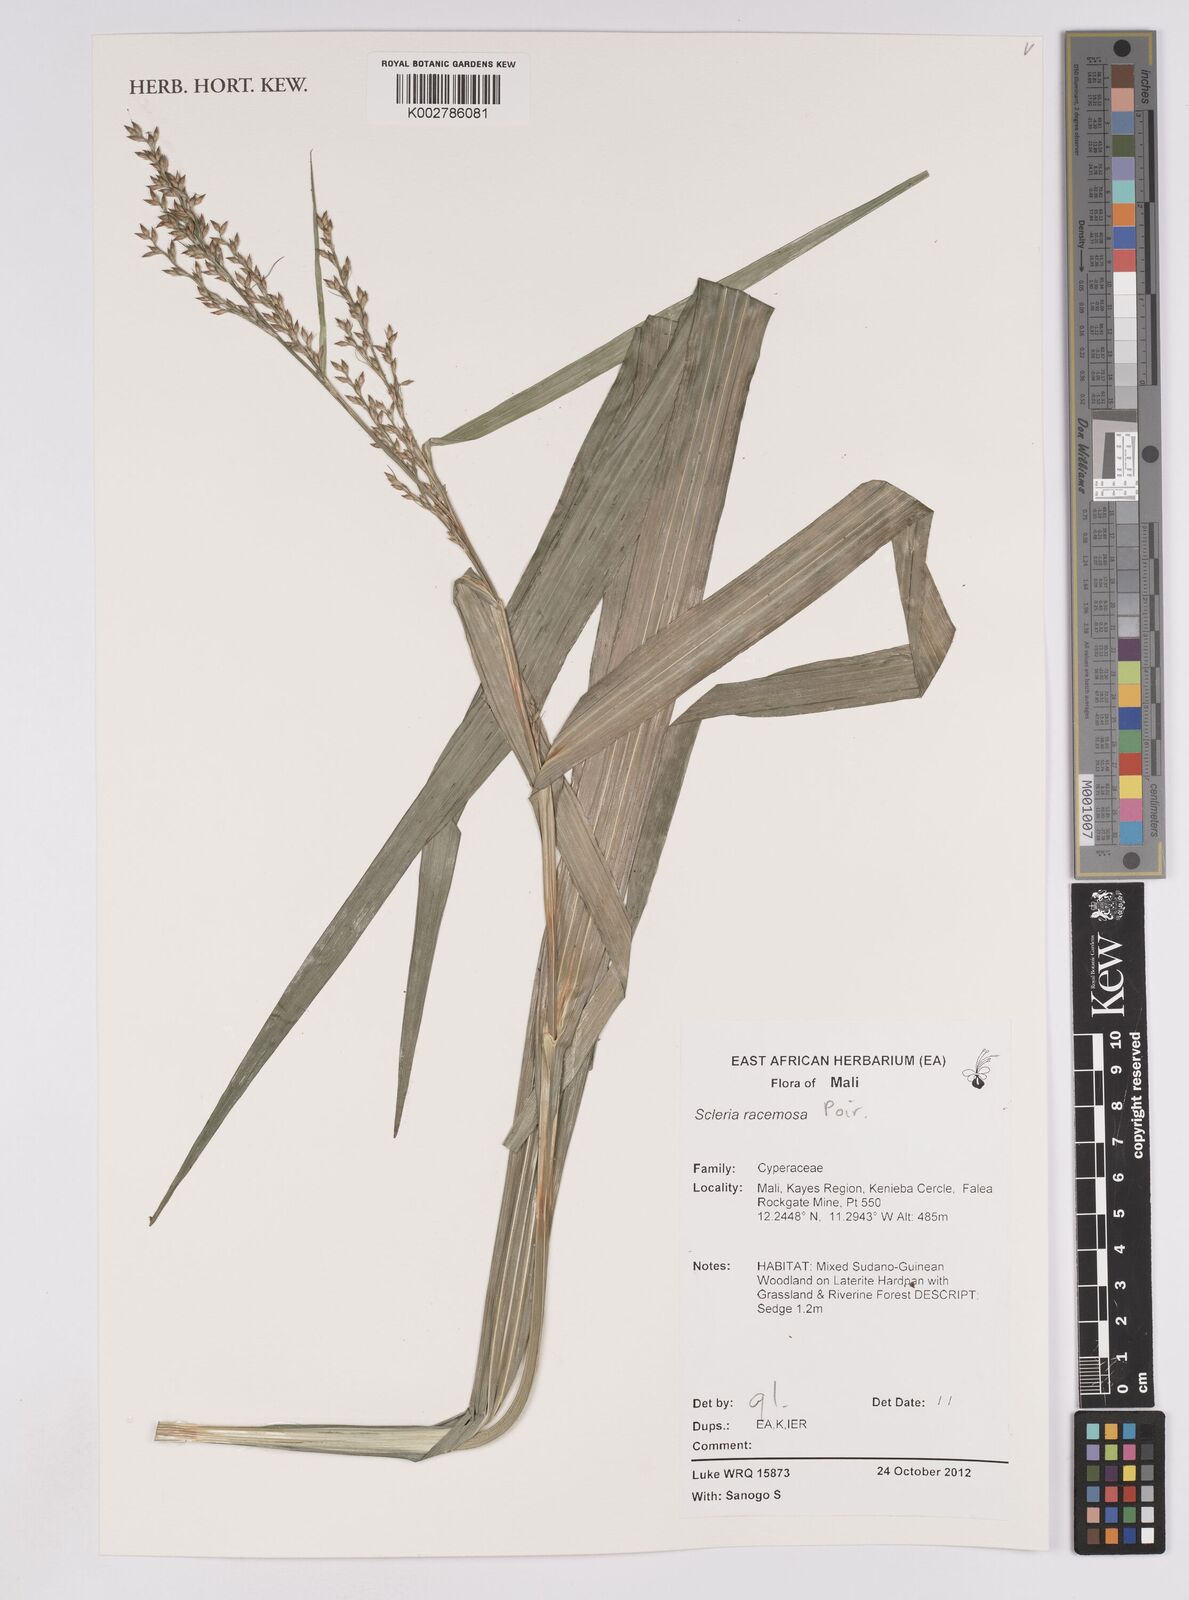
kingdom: Plantae
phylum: Tracheophyta
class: Liliopsida
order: Poales
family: Cyperaceae
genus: Scleria
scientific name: Scleria racemosa
